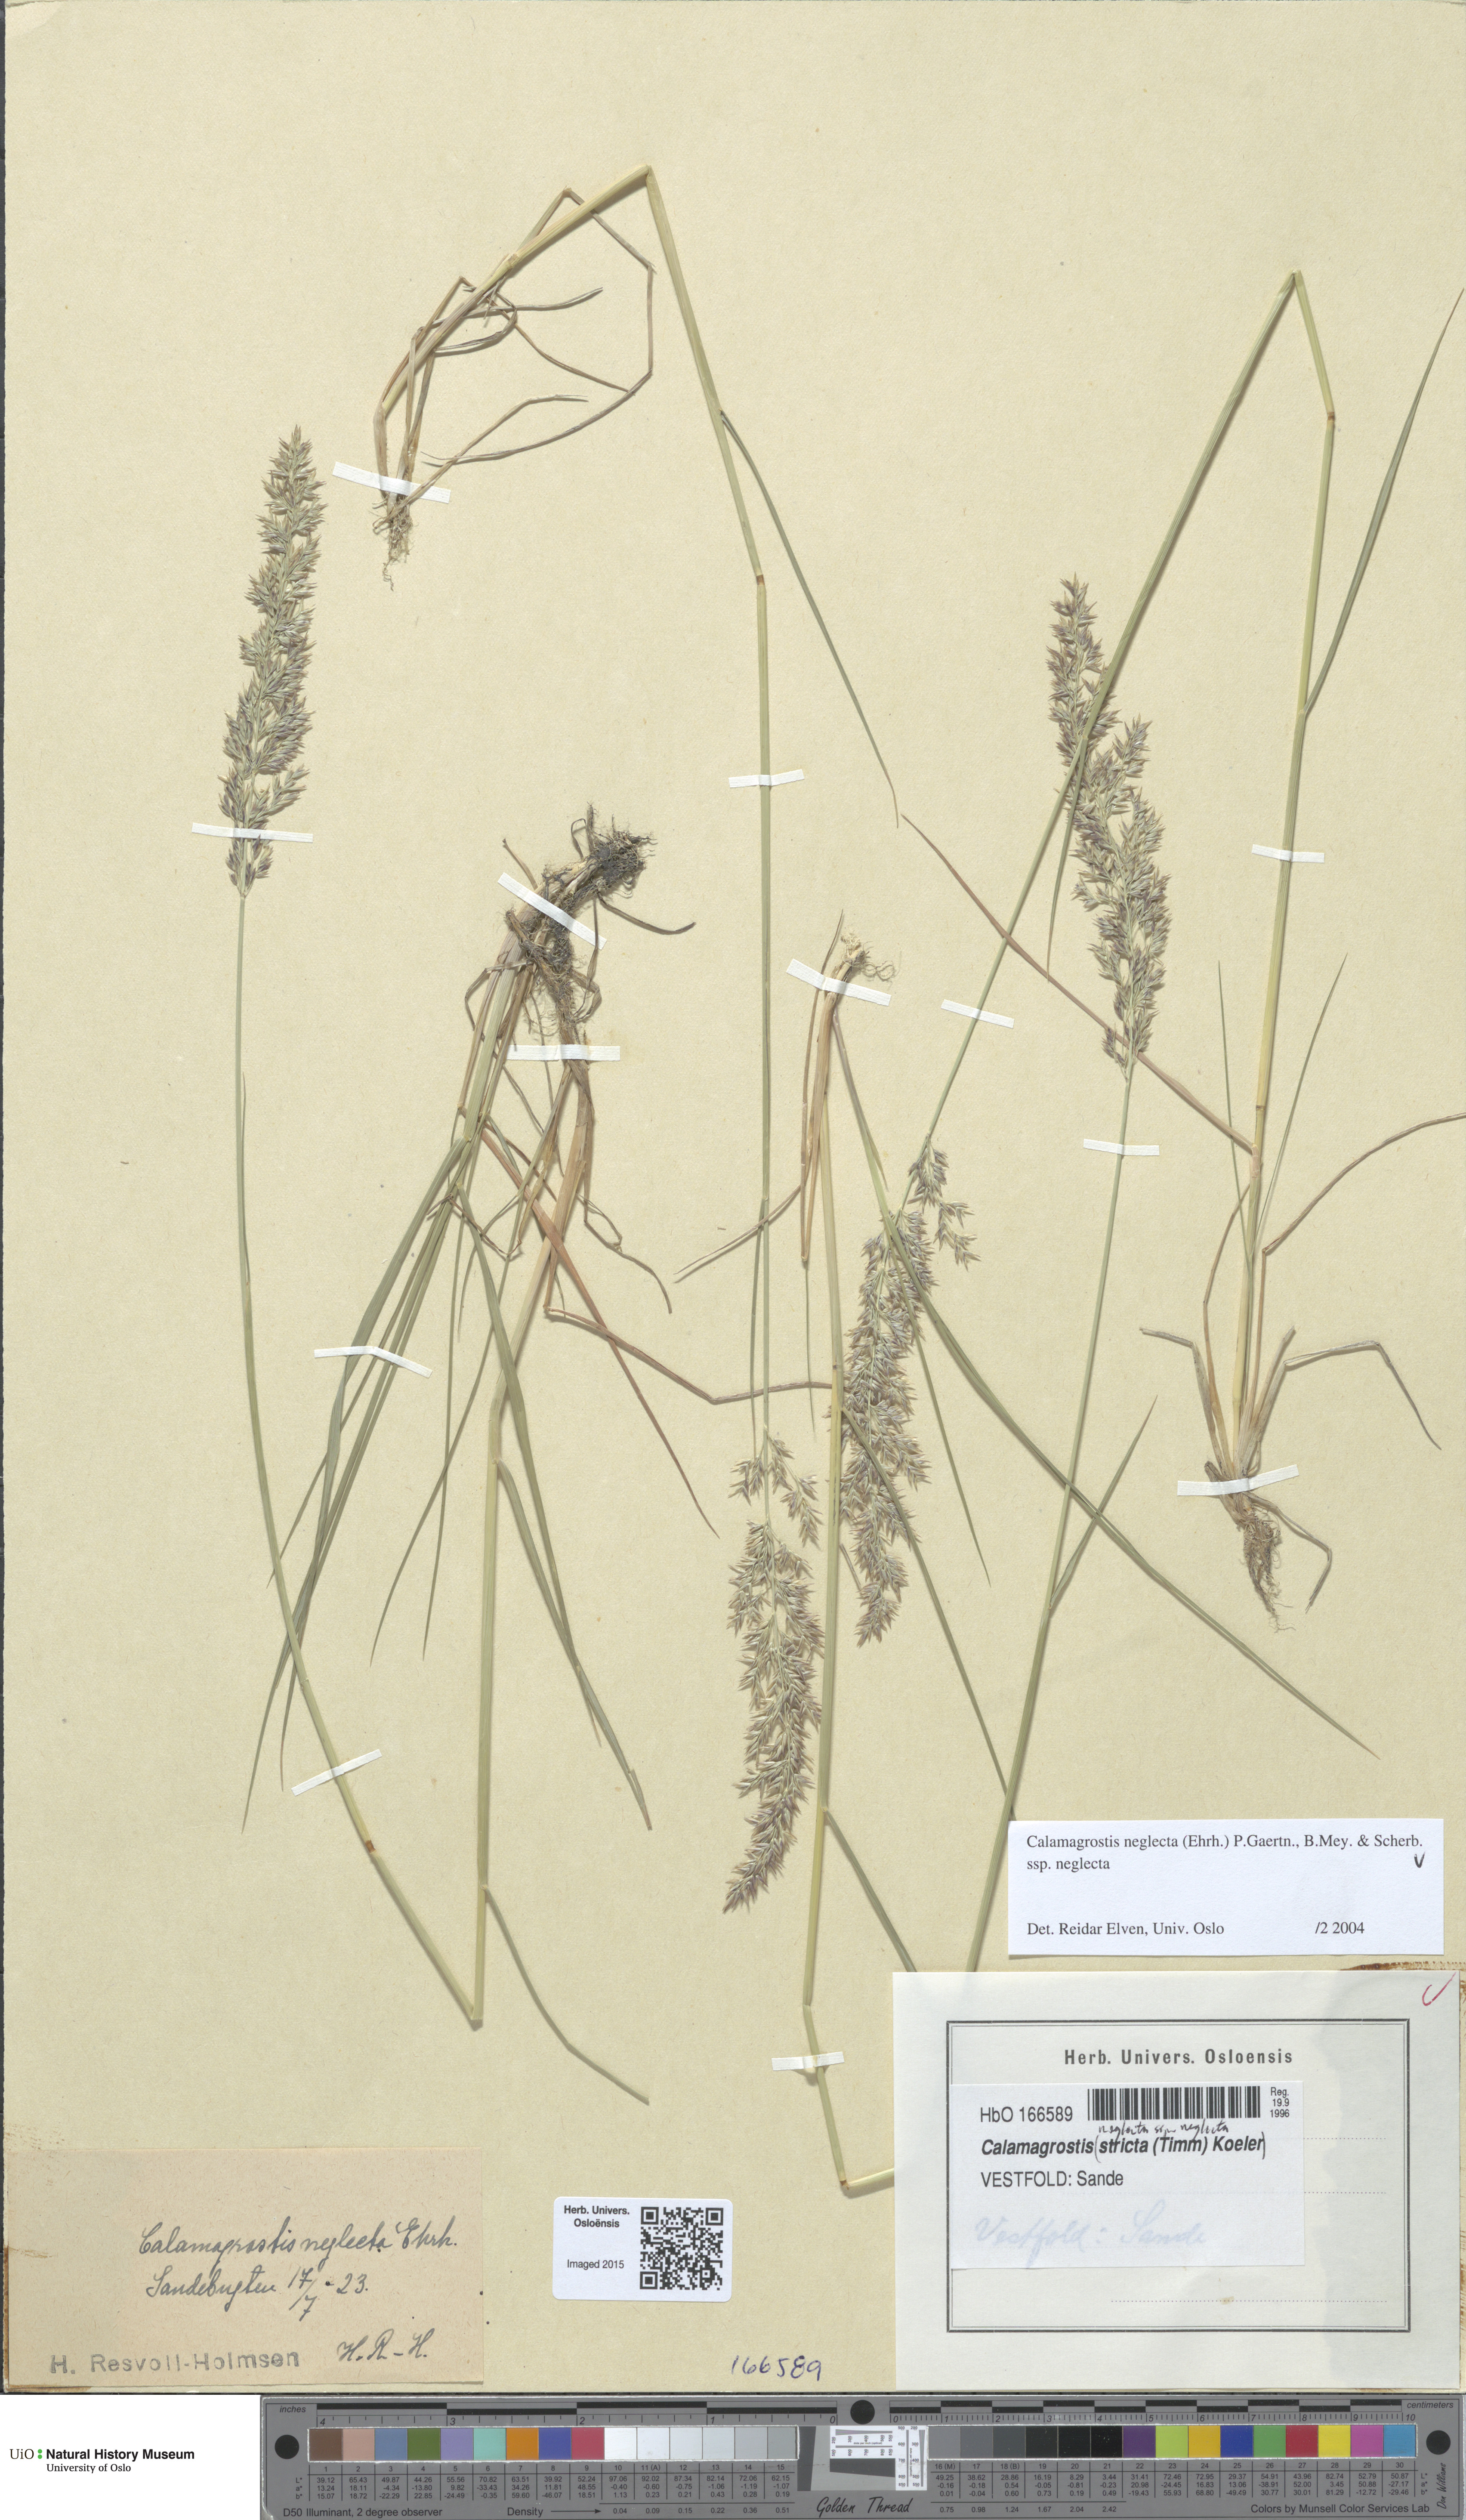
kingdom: Plantae
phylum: Tracheophyta
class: Liliopsida
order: Poales
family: Poaceae
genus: Achnatherum
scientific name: Achnatherum calamagrostis
